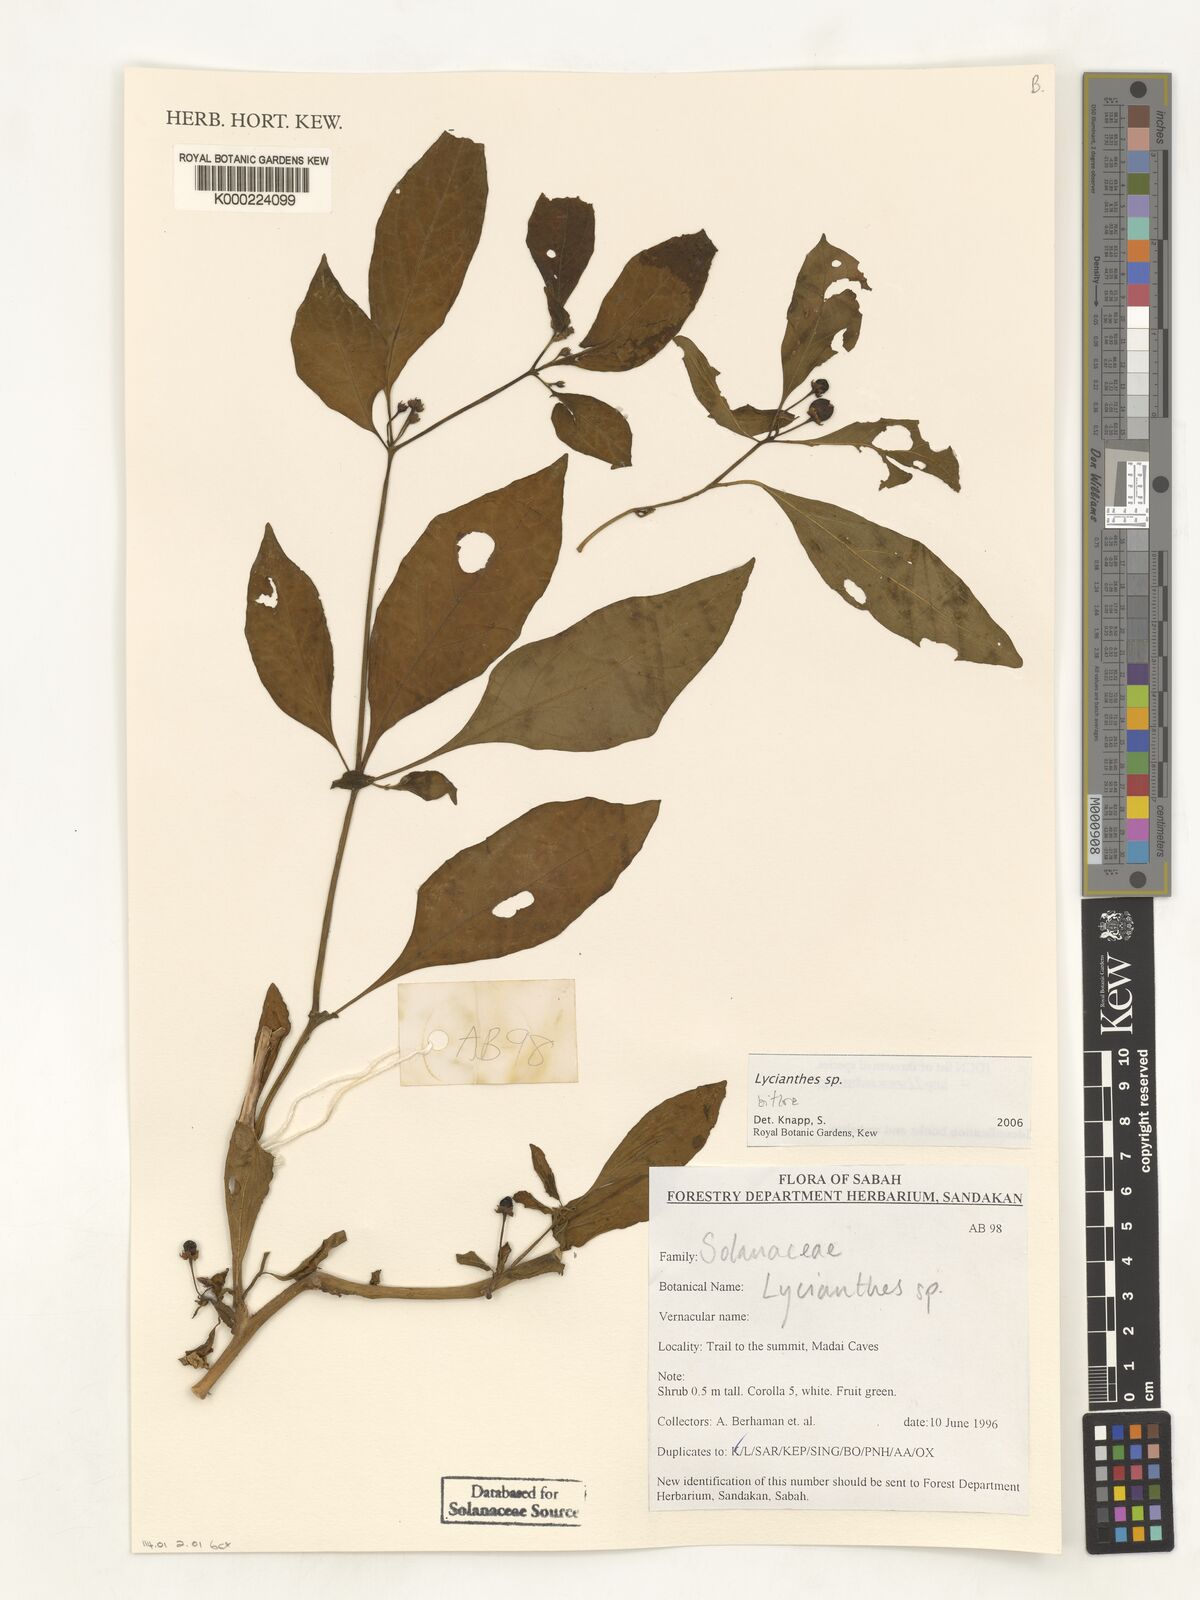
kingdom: Plantae
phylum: Tracheophyta
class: Magnoliopsida
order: Solanales
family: Solanaceae
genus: Lycianthes
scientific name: Lycianthes
